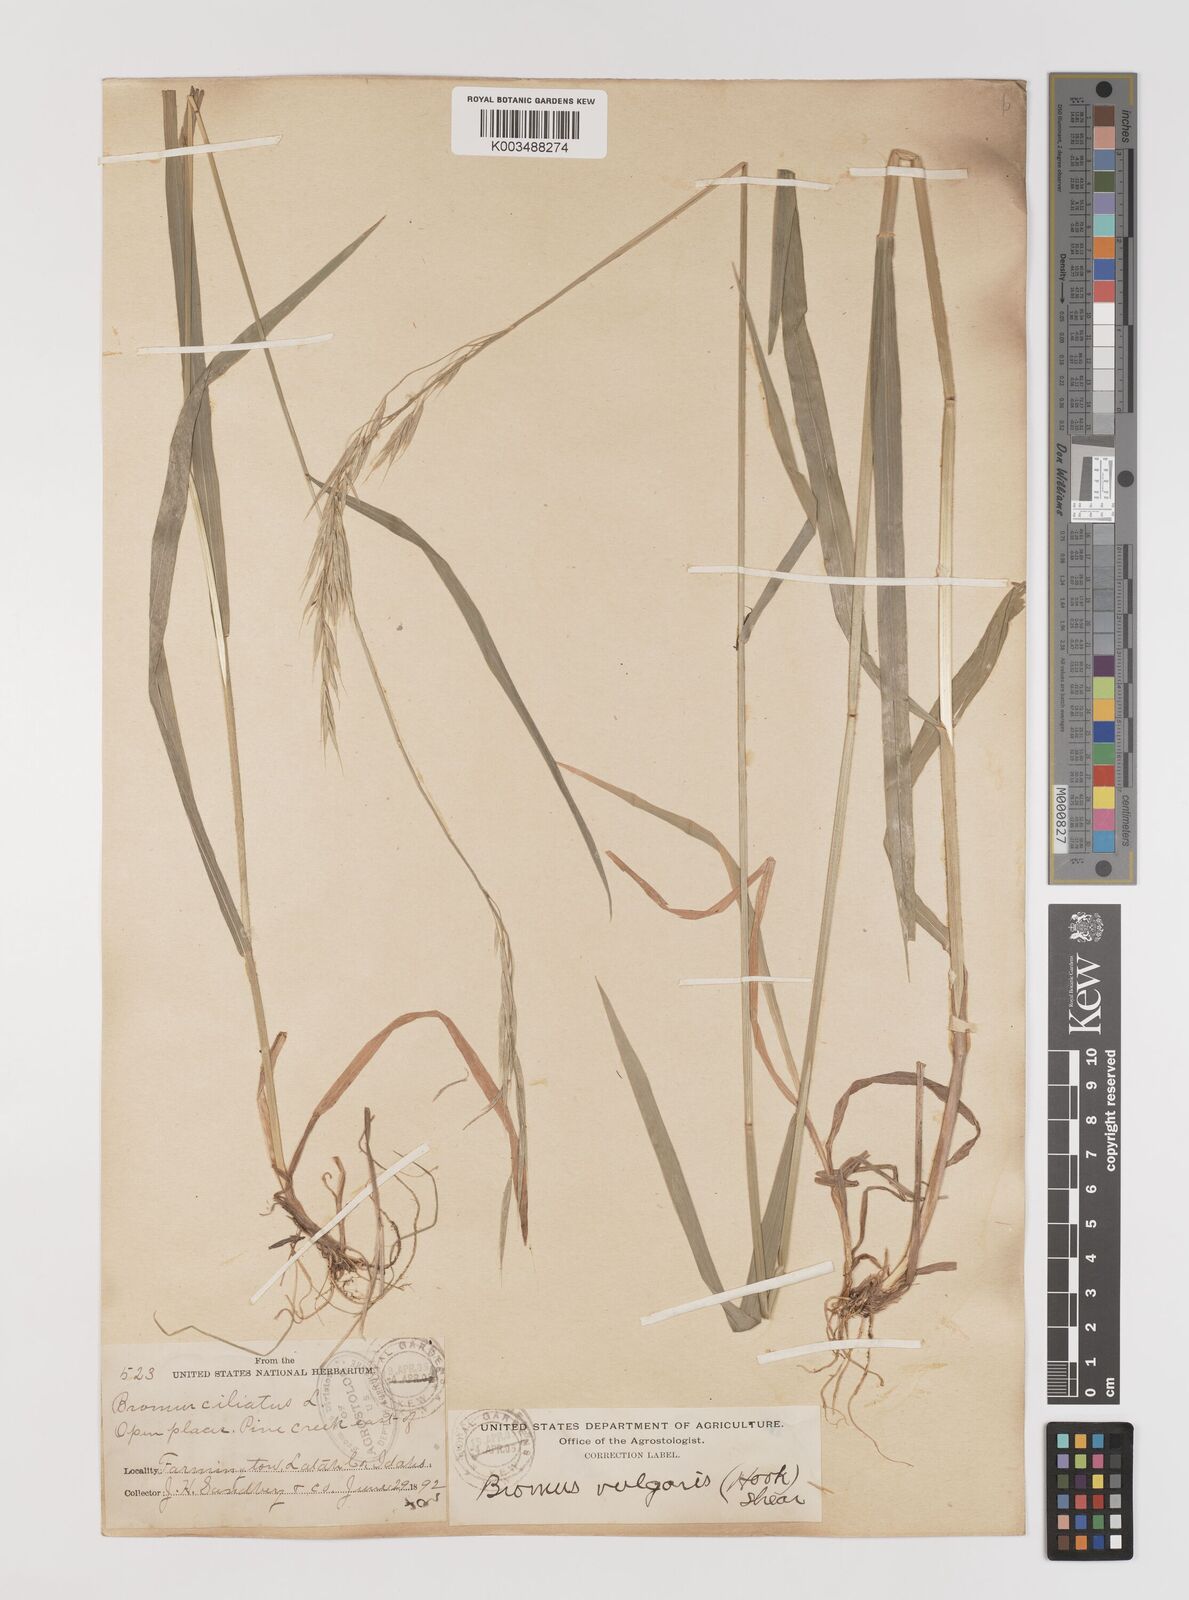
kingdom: Plantae
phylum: Tracheophyta
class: Liliopsida
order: Poales
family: Poaceae
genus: Bromus
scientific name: Bromus vulgaris
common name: Columbia brome
